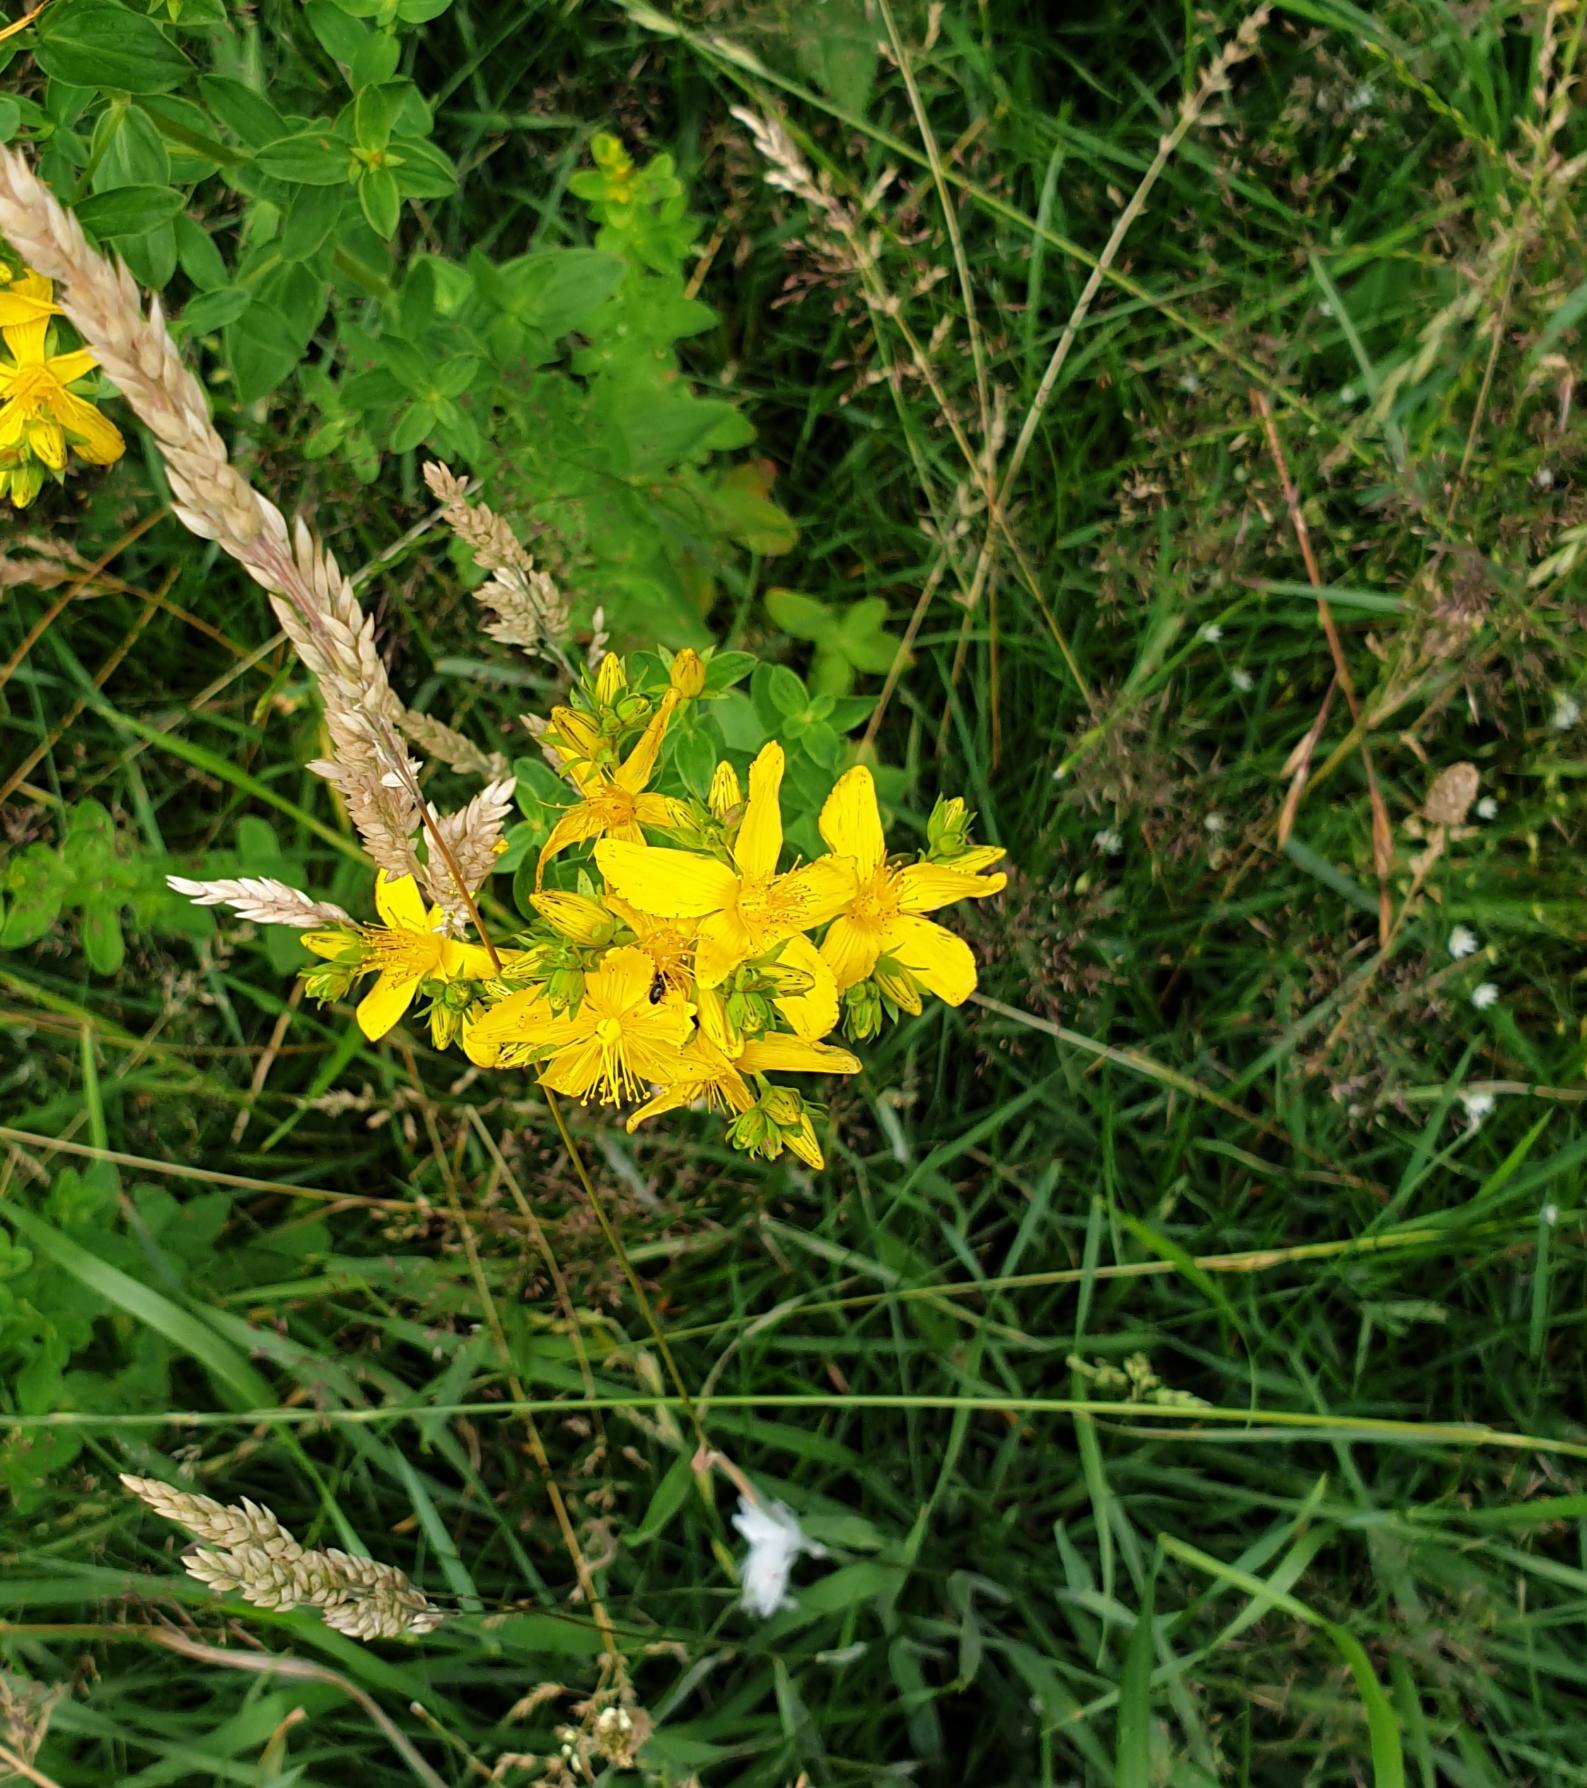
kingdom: Plantae
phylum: Tracheophyta
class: Magnoliopsida
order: Malpighiales
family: Hypericaceae
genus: Hypericum
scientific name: Hypericum perforatum
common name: Prikbladet perikon
